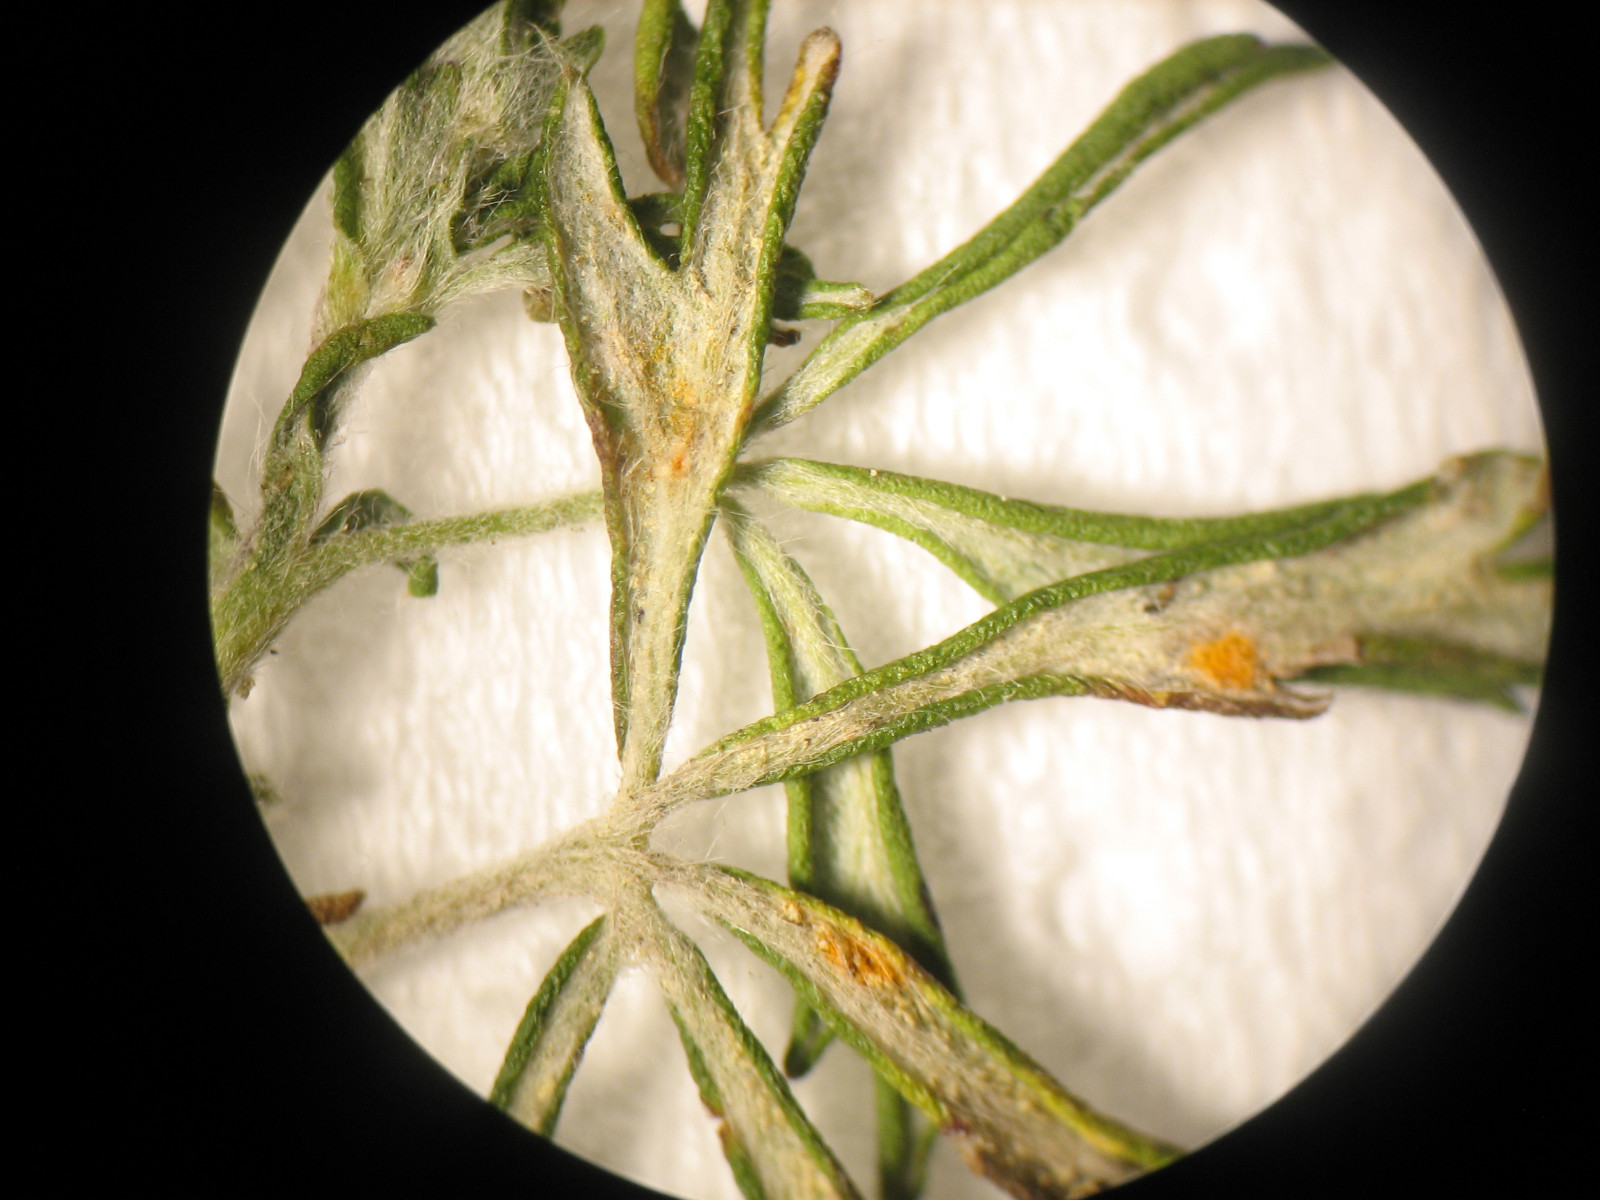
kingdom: Fungi
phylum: Basidiomycota
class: Pucciniomycetes
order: Pucciniales
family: Phragmidiaceae
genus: Phragmidium
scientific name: Phragmidium potentillae
